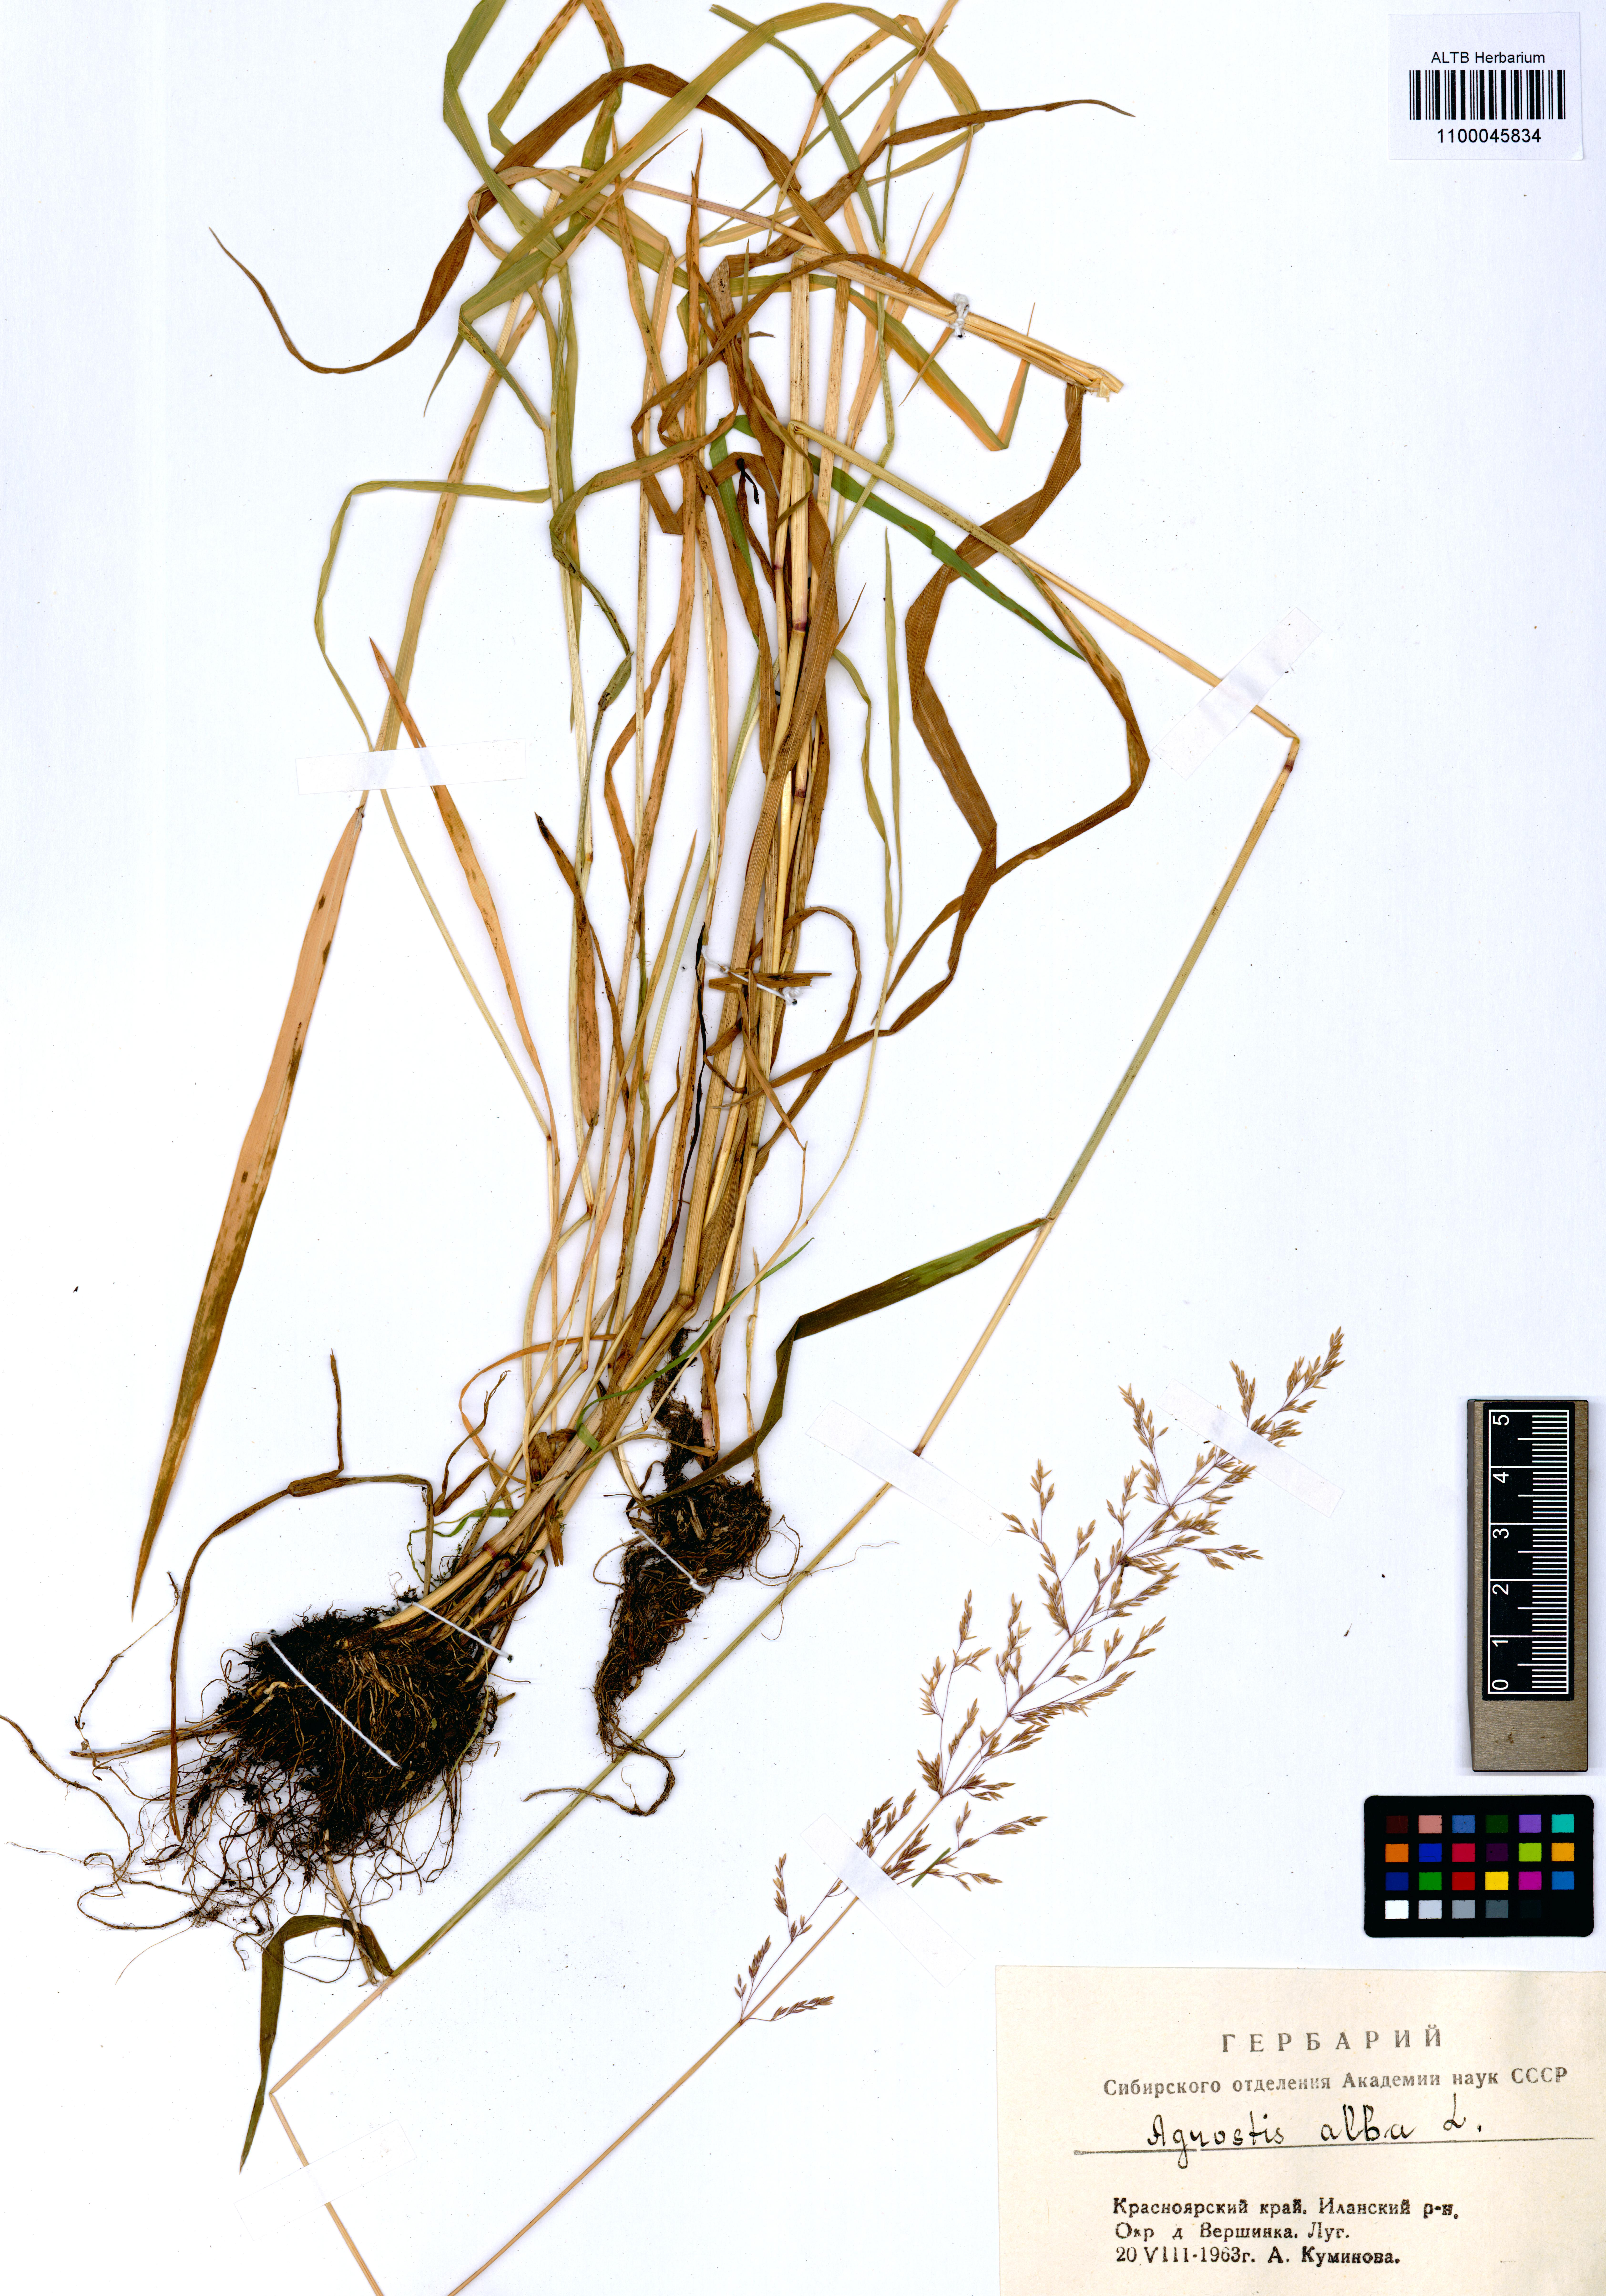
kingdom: Plantae
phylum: Tracheophyta
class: Liliopsida
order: Poales
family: Poaceae
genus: Agrostis
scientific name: Agrostis gigantea
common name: Black bent
